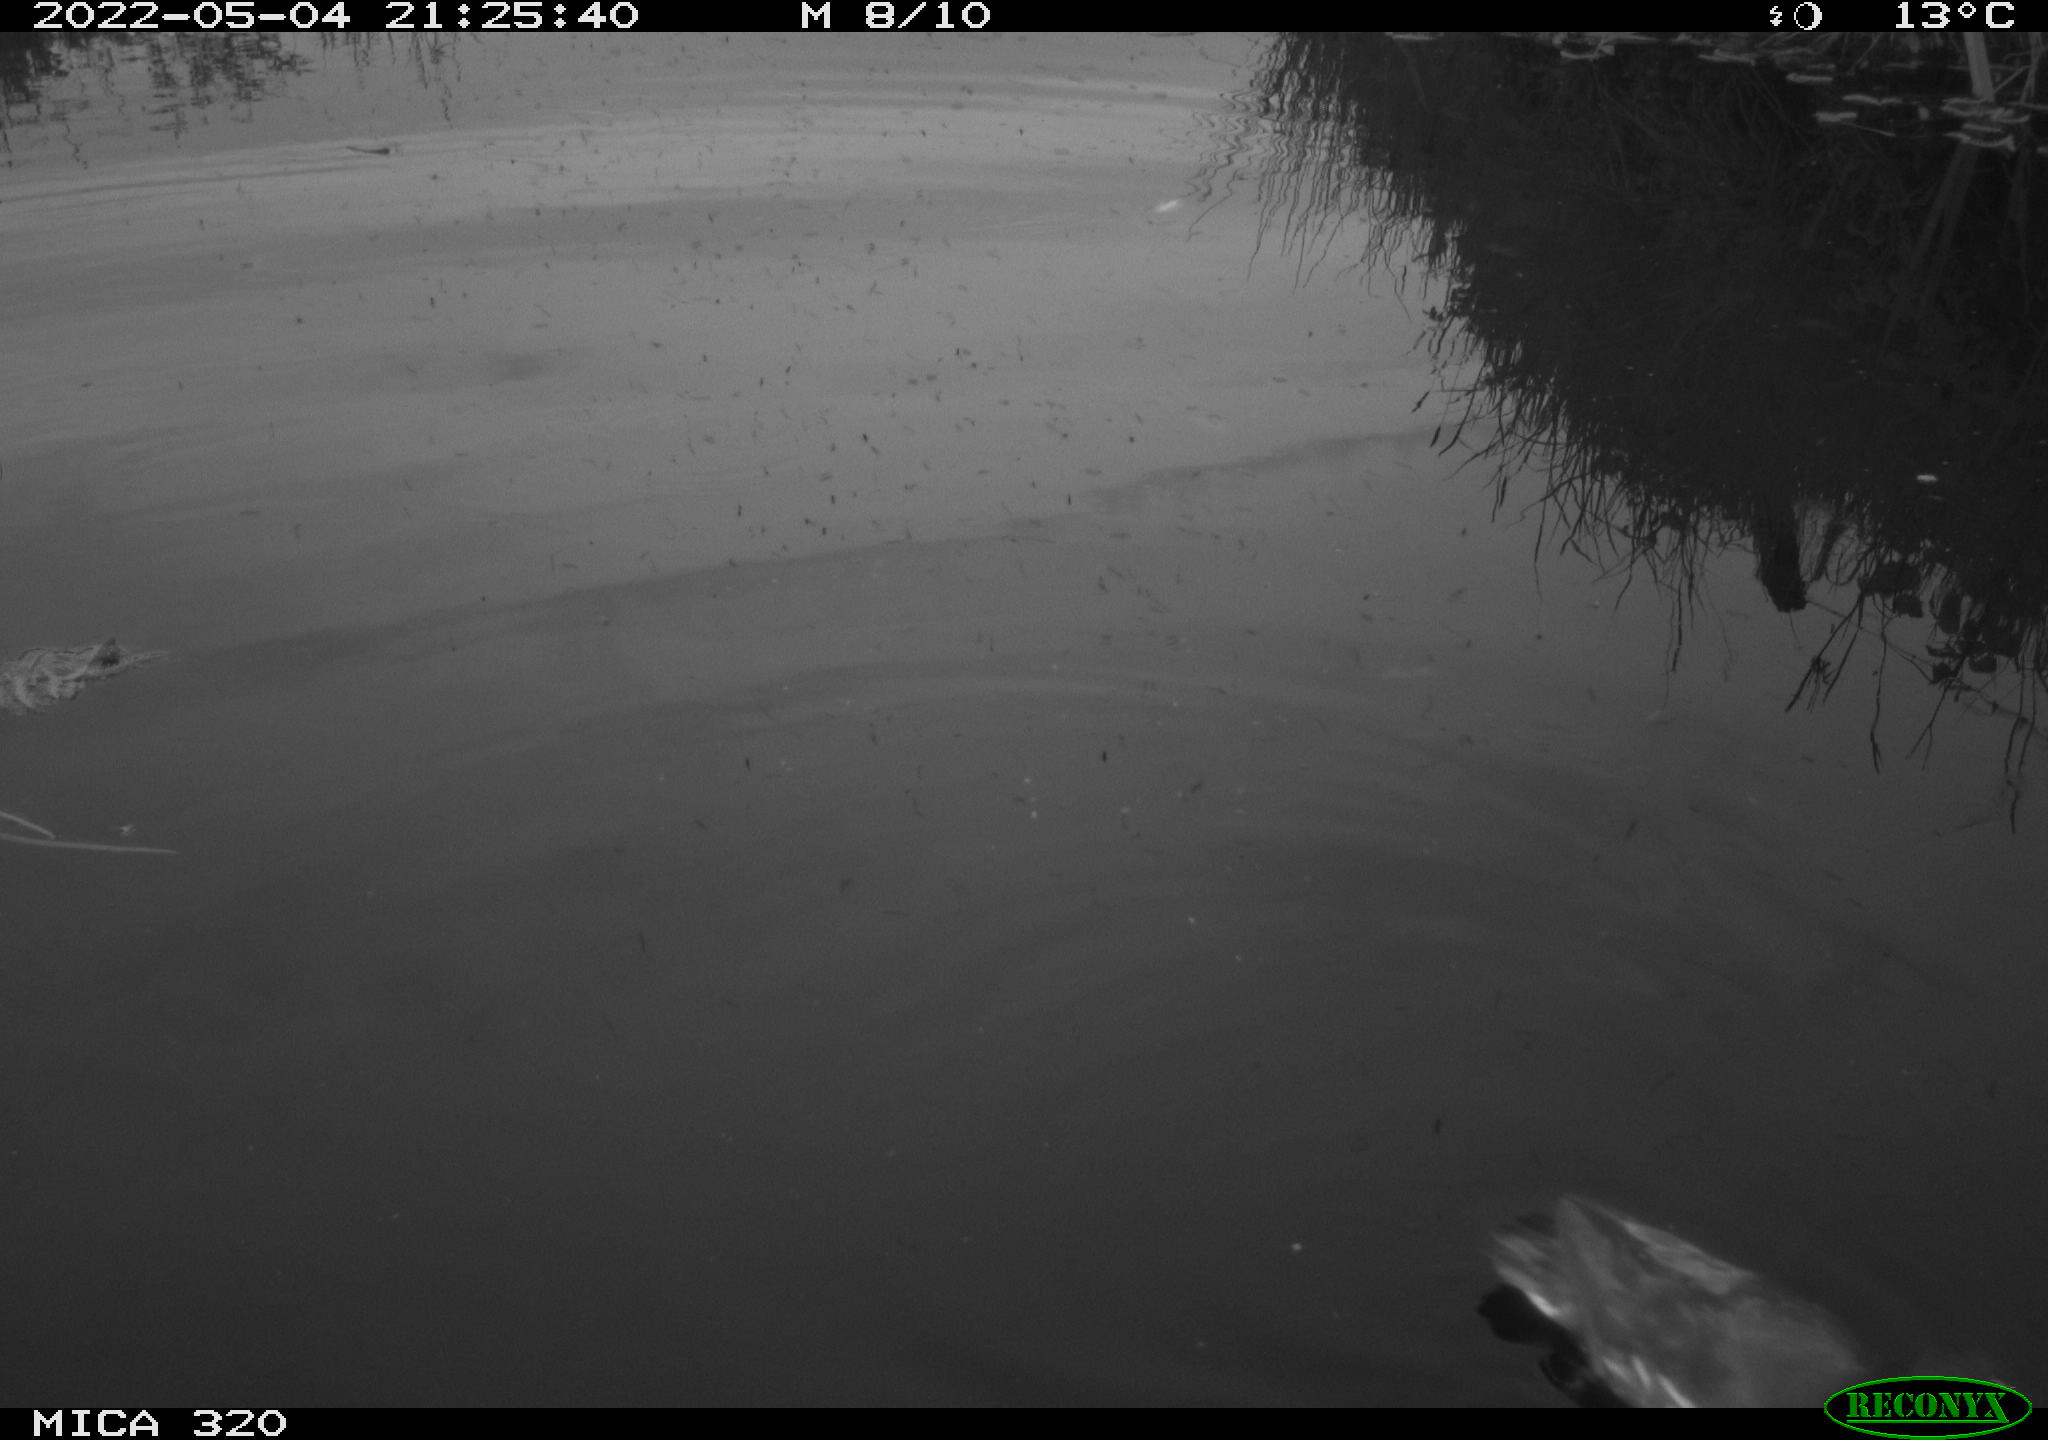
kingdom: Animalia
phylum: Chordata
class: Aves
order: Gruiformes
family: Rallidae
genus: Gallinula
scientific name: Gallinula chloropus
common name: Common moorhen
